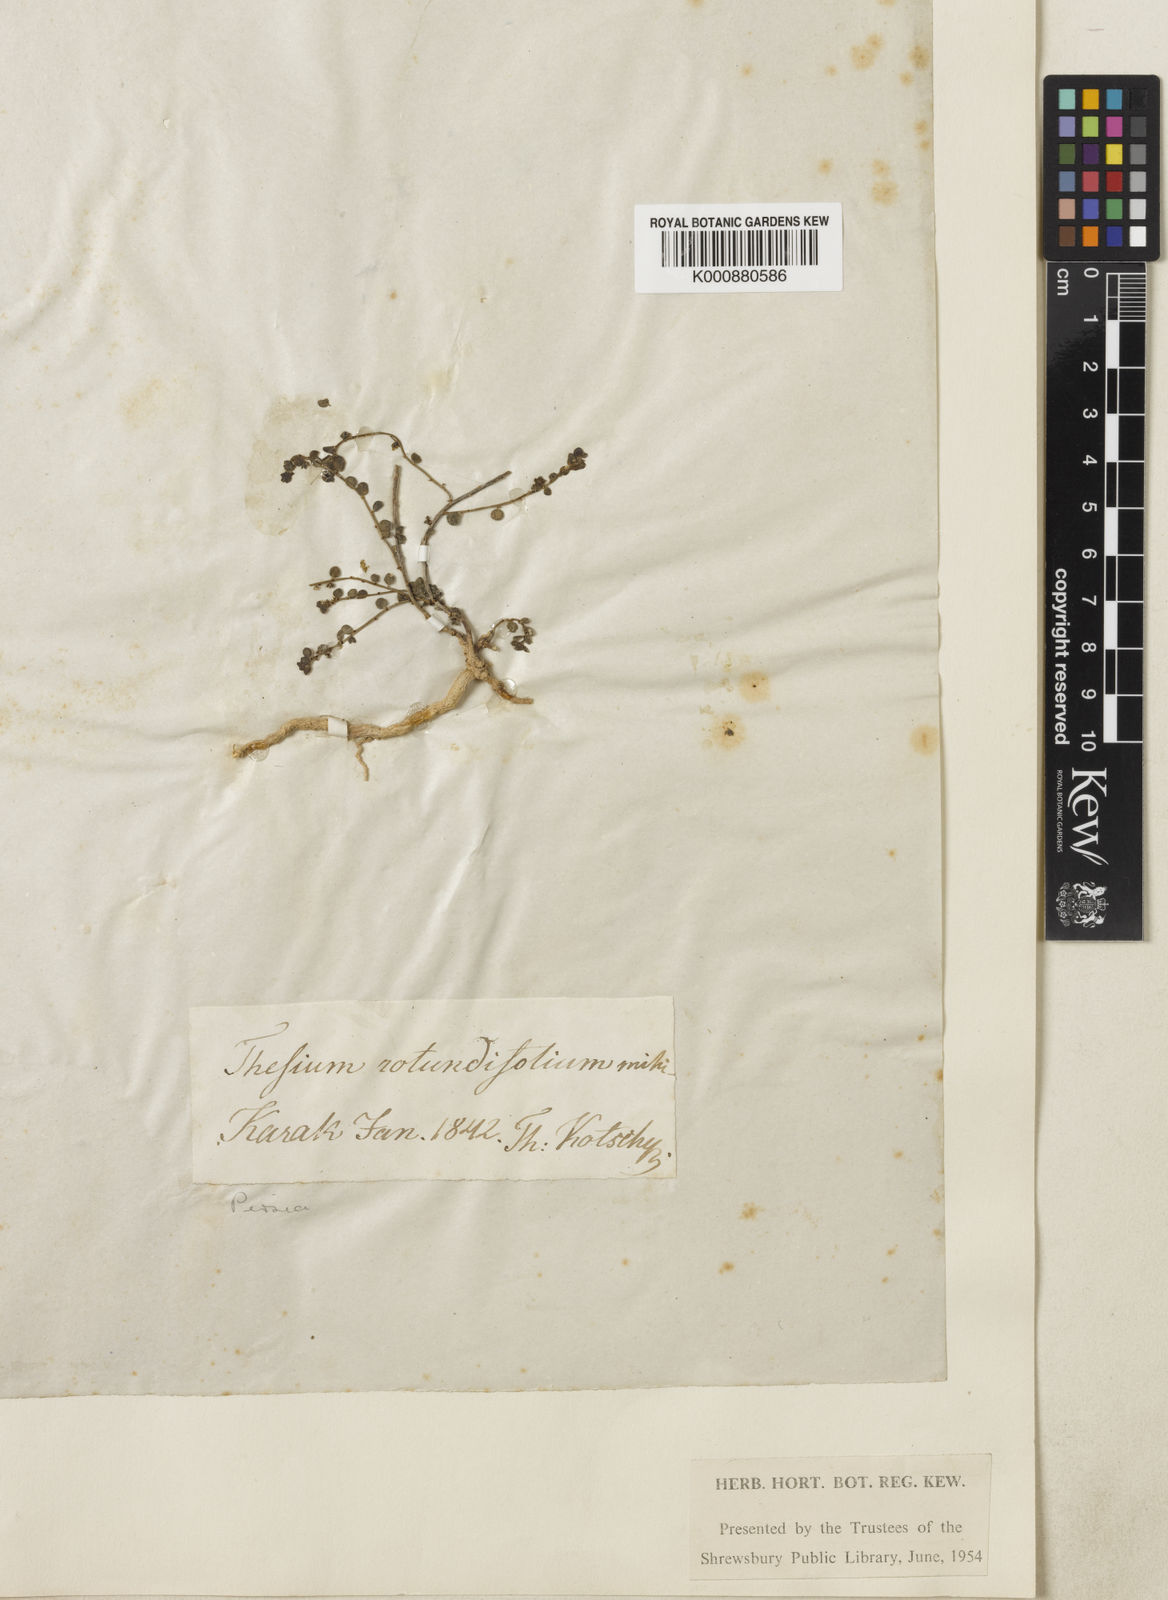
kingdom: Plantae
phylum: Tracheophyta
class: Magnoliopsida
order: Santalales
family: Thesiaceae
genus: Thesium
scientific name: Thesium scabriflorum
